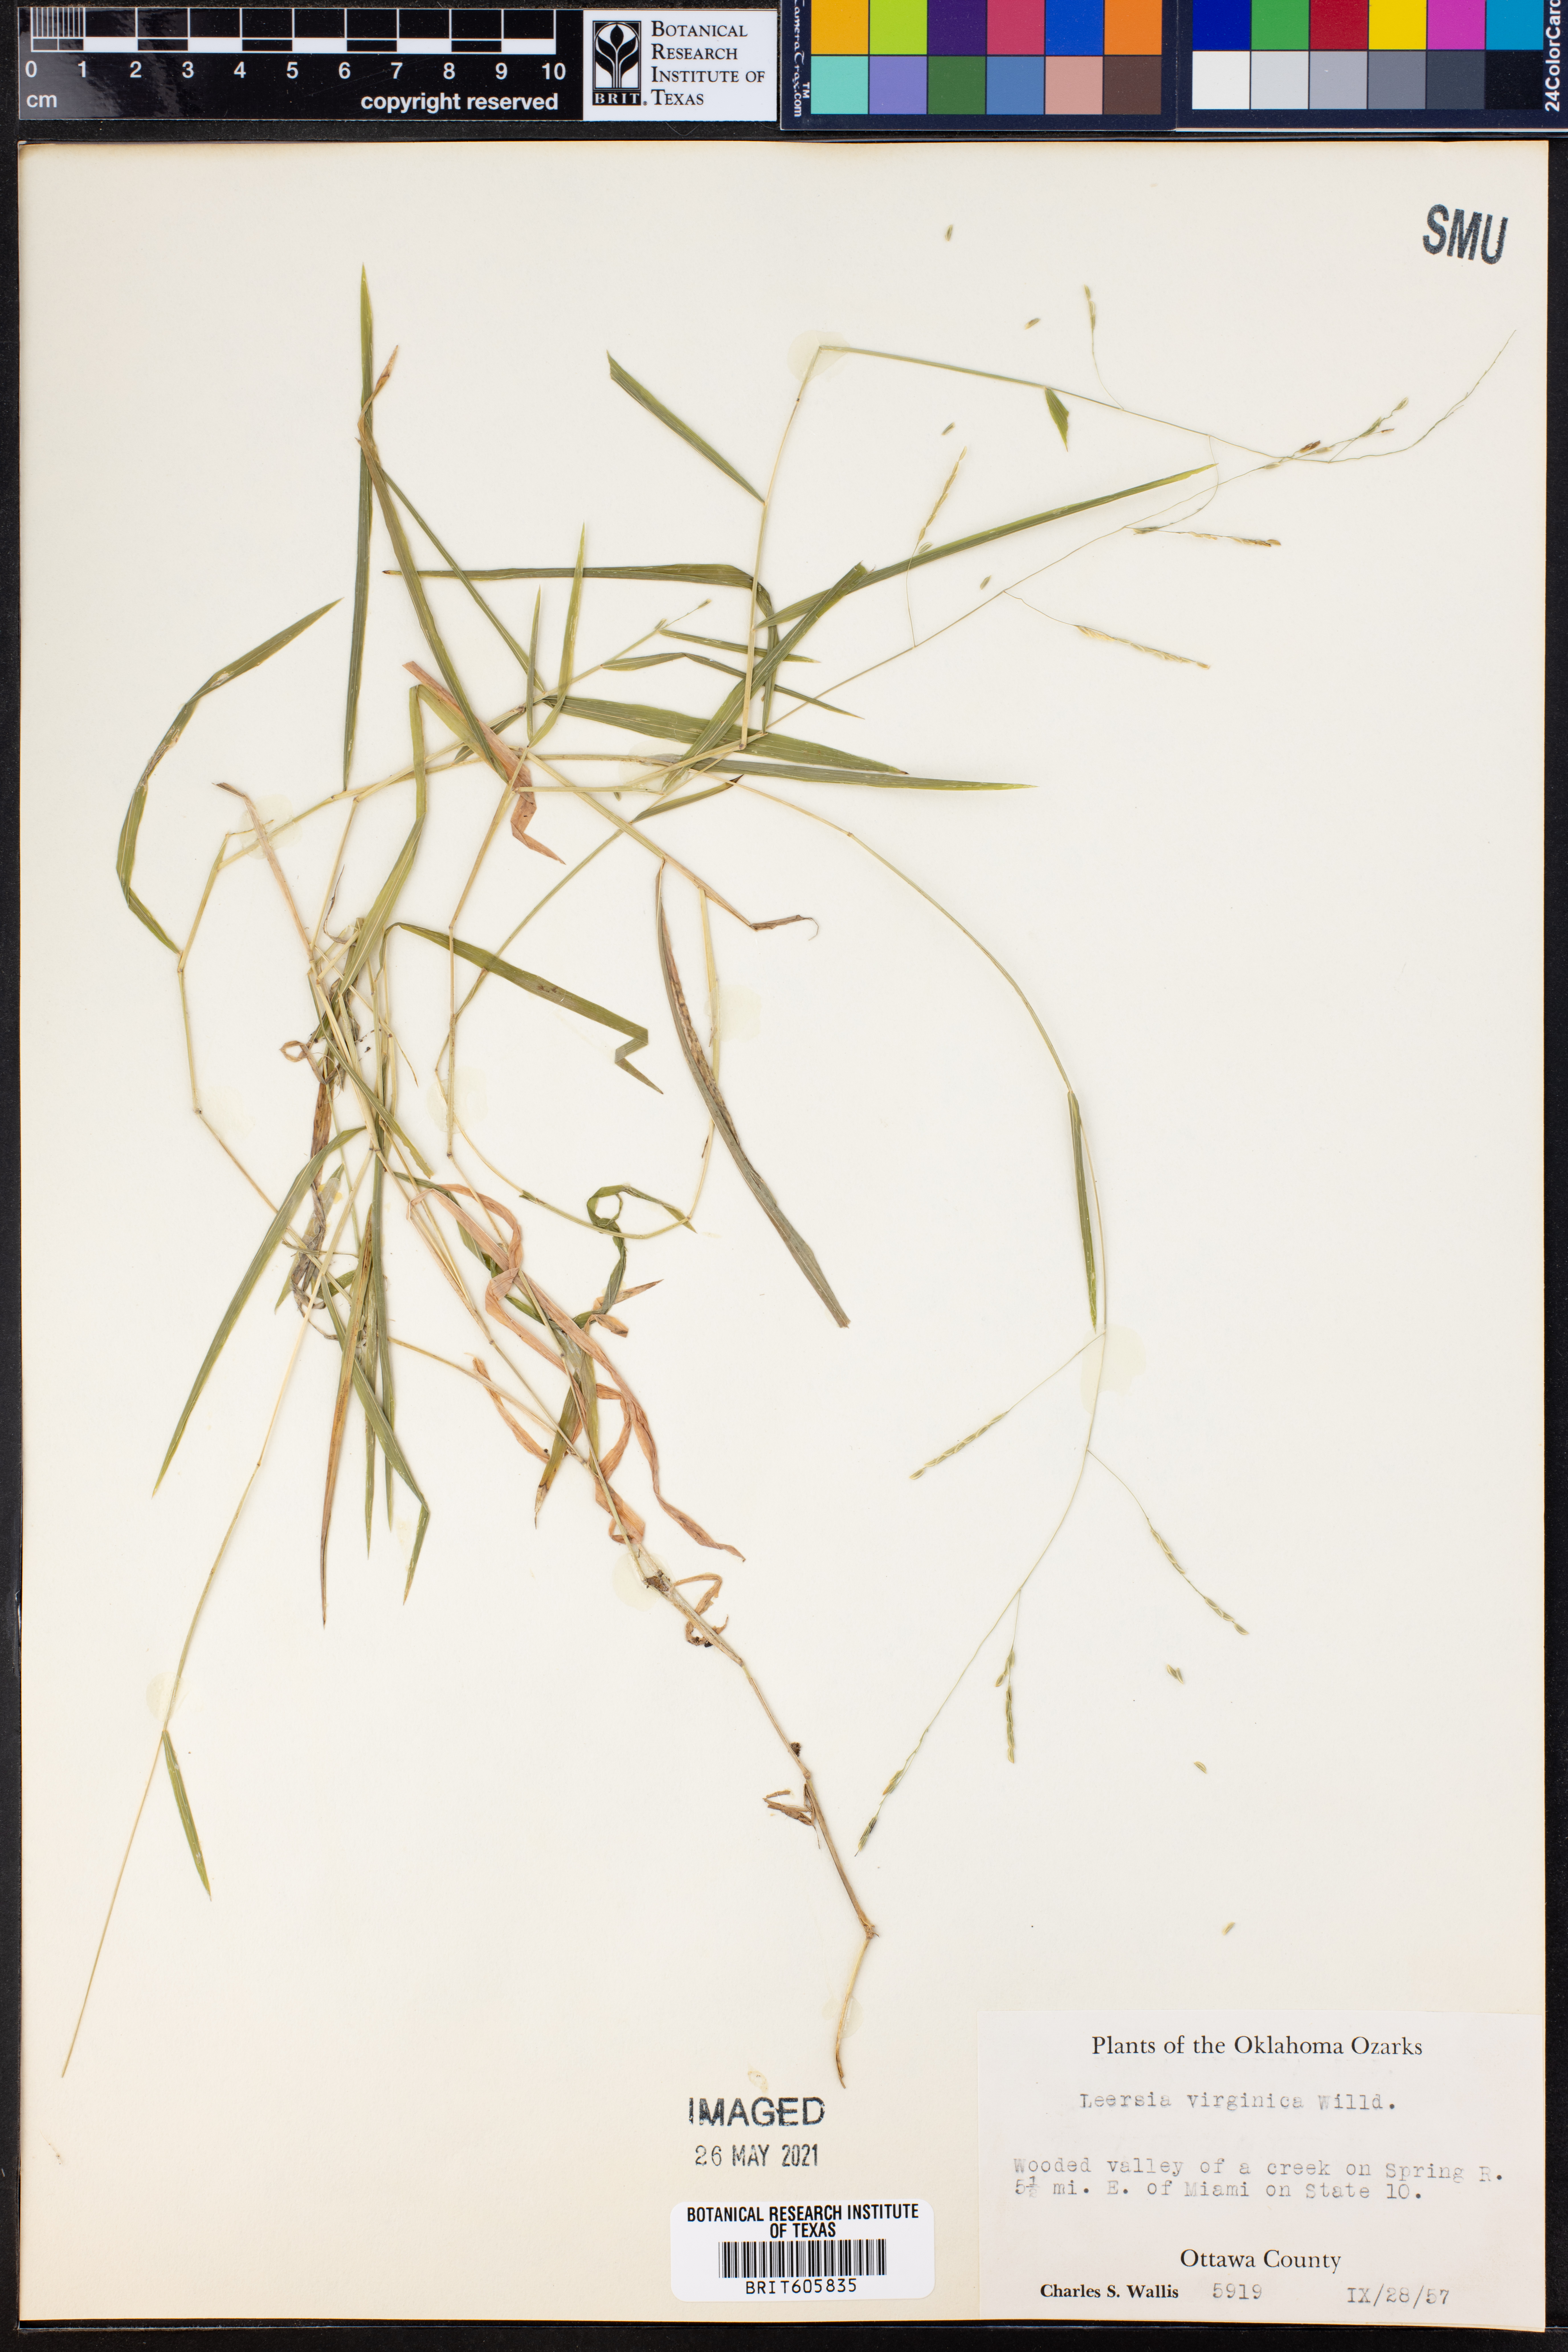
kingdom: Plantae
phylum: Tracheophyta
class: Liliopsida
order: Poales
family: Poaceae
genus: Leersia
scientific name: Leersia virginica
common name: White cutgrass
